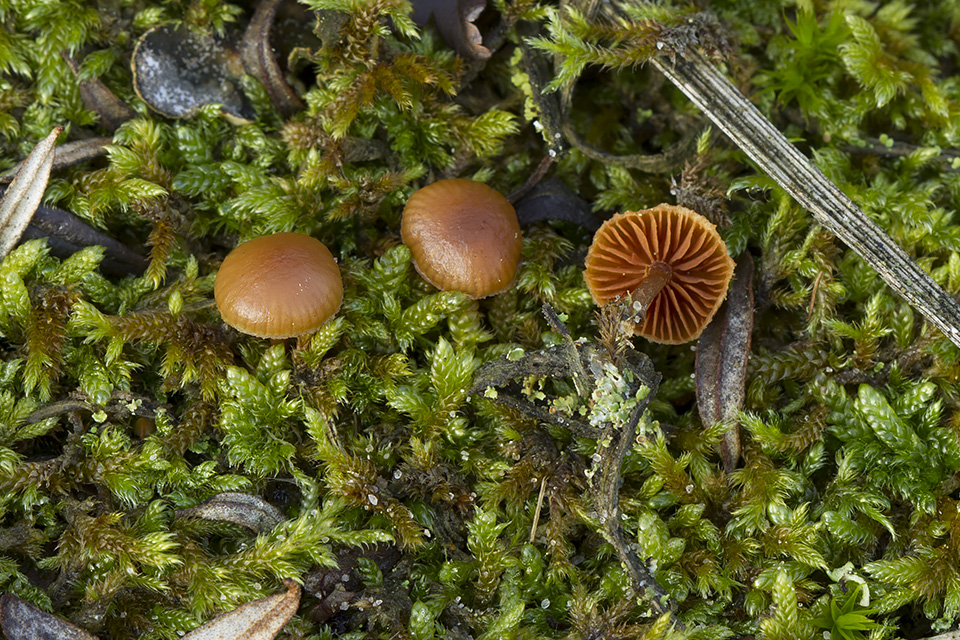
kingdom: Fungi
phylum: Basidiomycota
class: Agaricomycetes
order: Agaricales
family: Strophariaceae
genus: Deconica
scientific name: Deconica montana
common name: rødbrun stråhat
